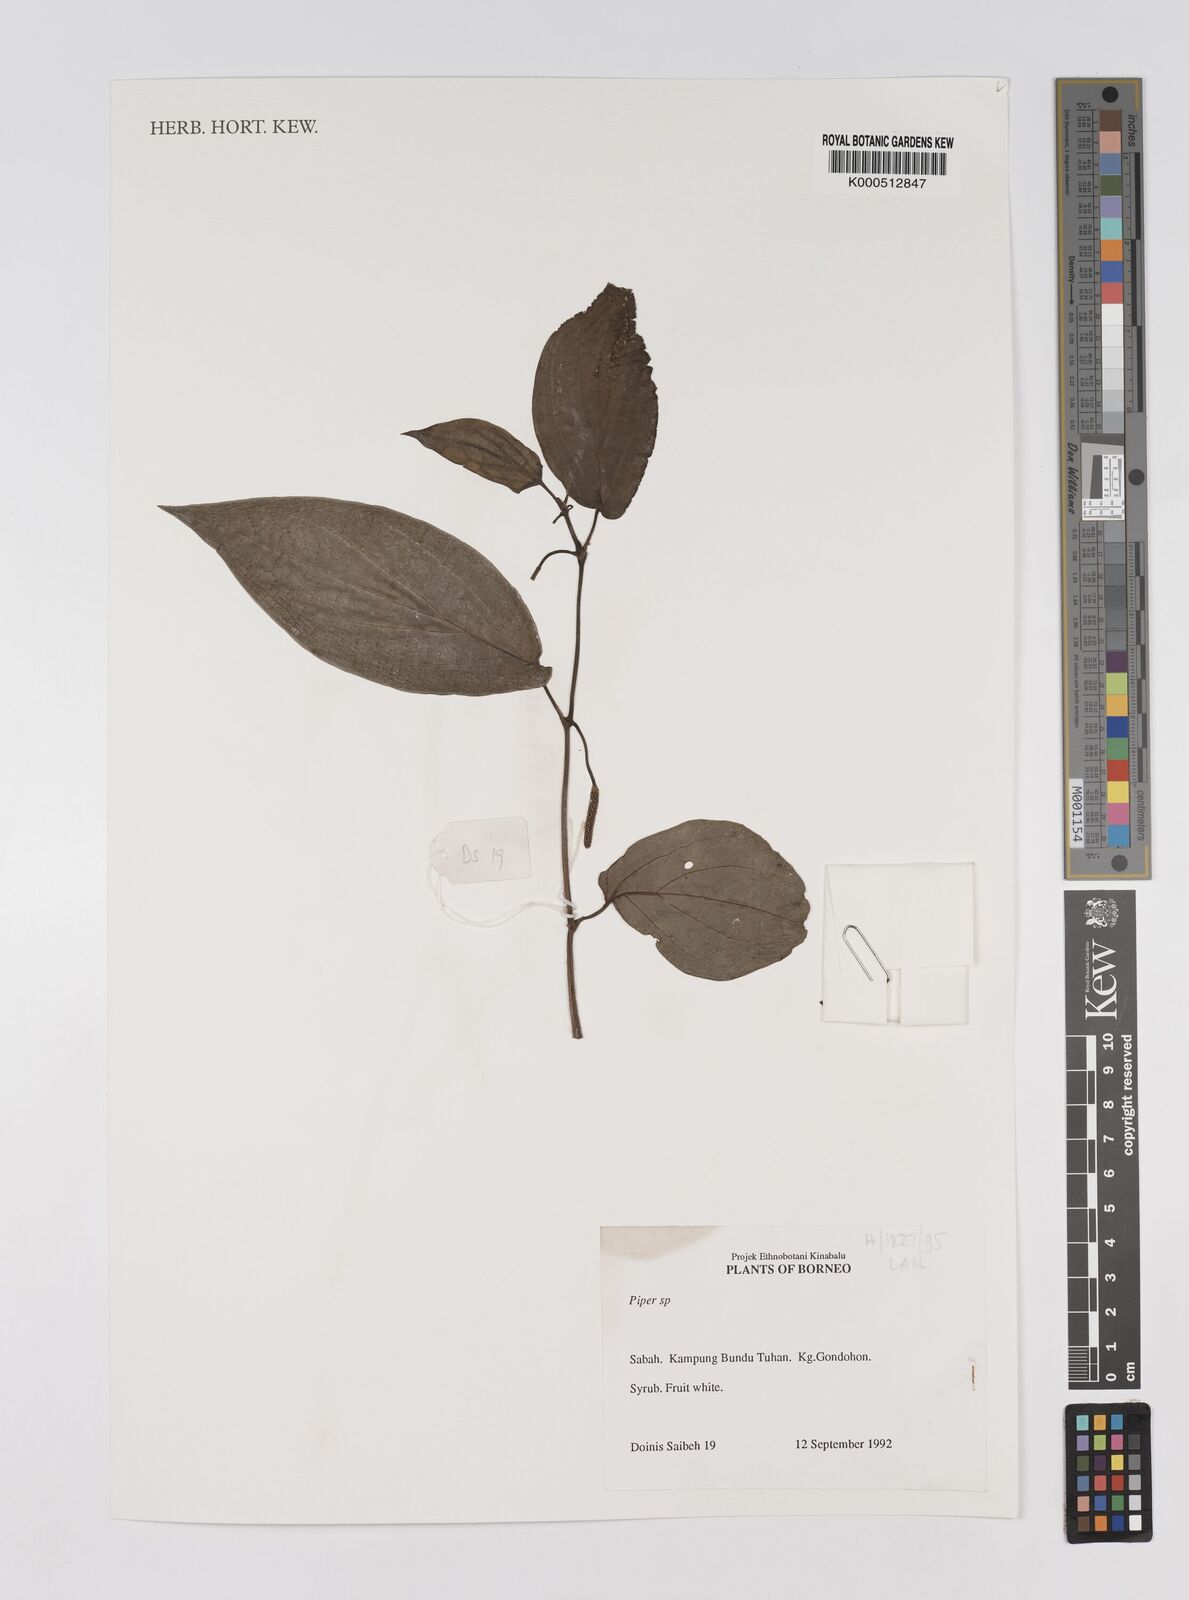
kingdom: Plantae
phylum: Tracheophyta
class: Magnoliopsida
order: Piperales
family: Piperaceae
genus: Piper
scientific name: Piper
